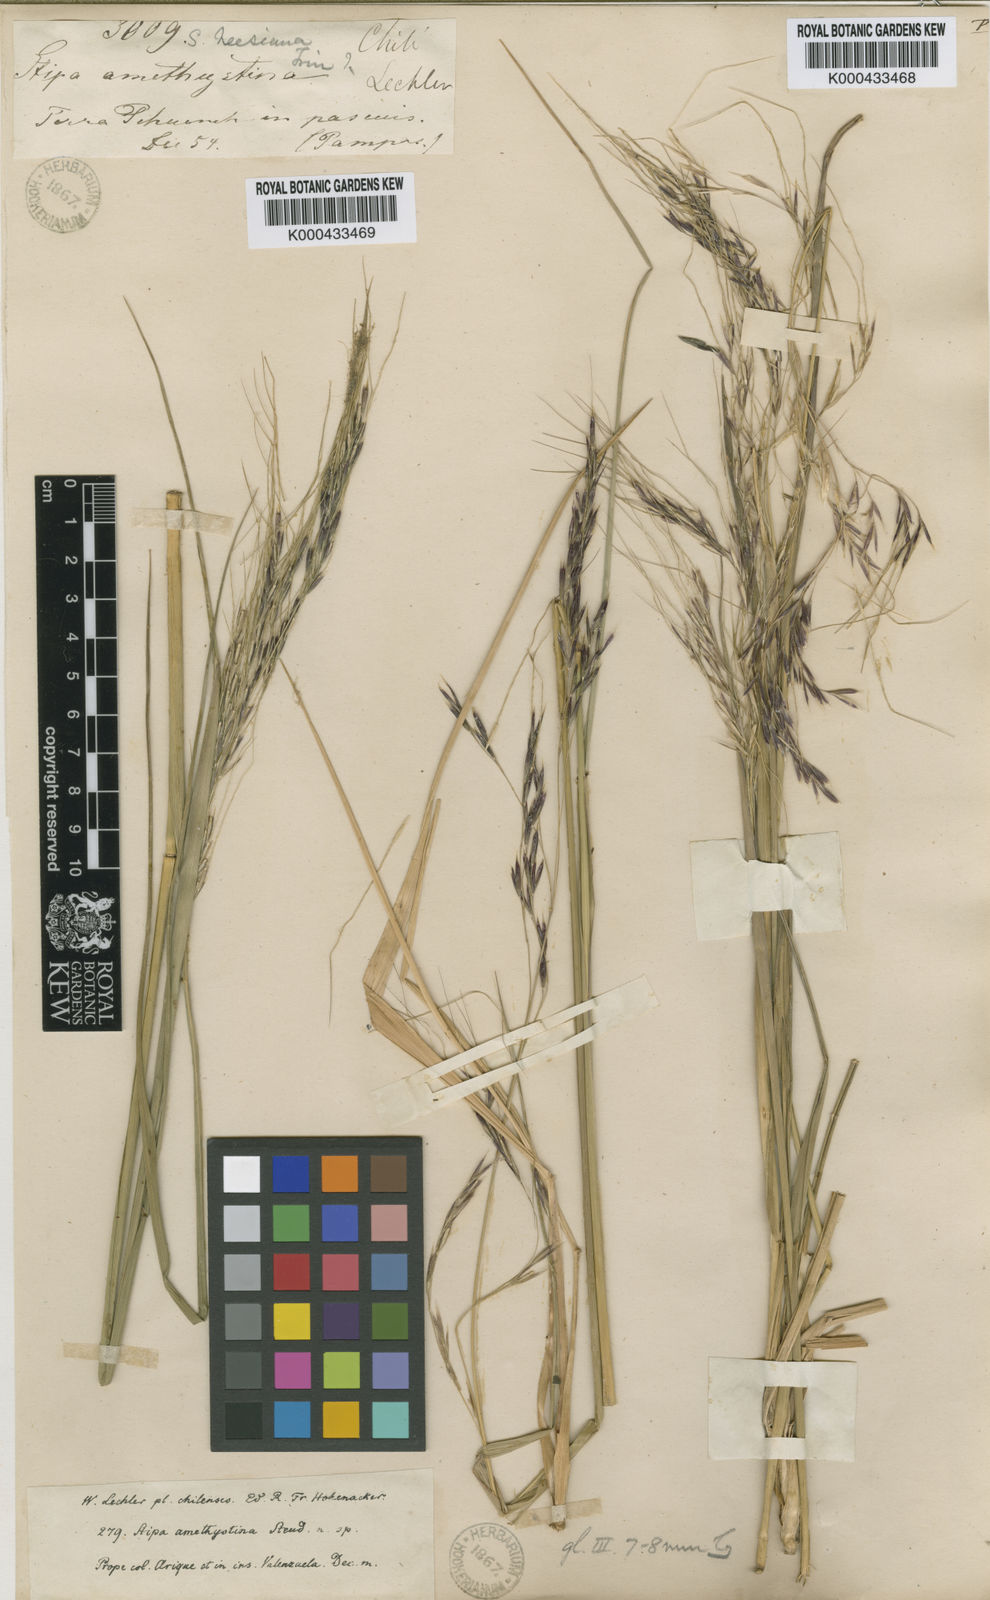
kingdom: Plantae
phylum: Tracheophyta
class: Liliopsida
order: Poales
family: Poaceae
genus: Nassella
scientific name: Nassella poeppigiana
